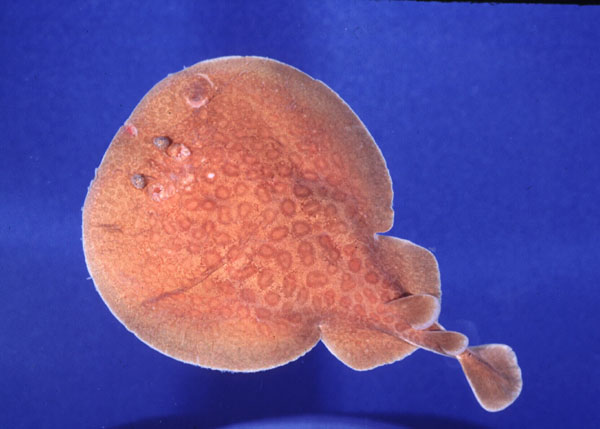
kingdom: Animalia
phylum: Chordata
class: Elasmobranchii
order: Torpediniformes
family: Torpedinidae
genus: Torpedo
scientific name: Torpedo fuscomaculata
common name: Blackspotted electric ray
